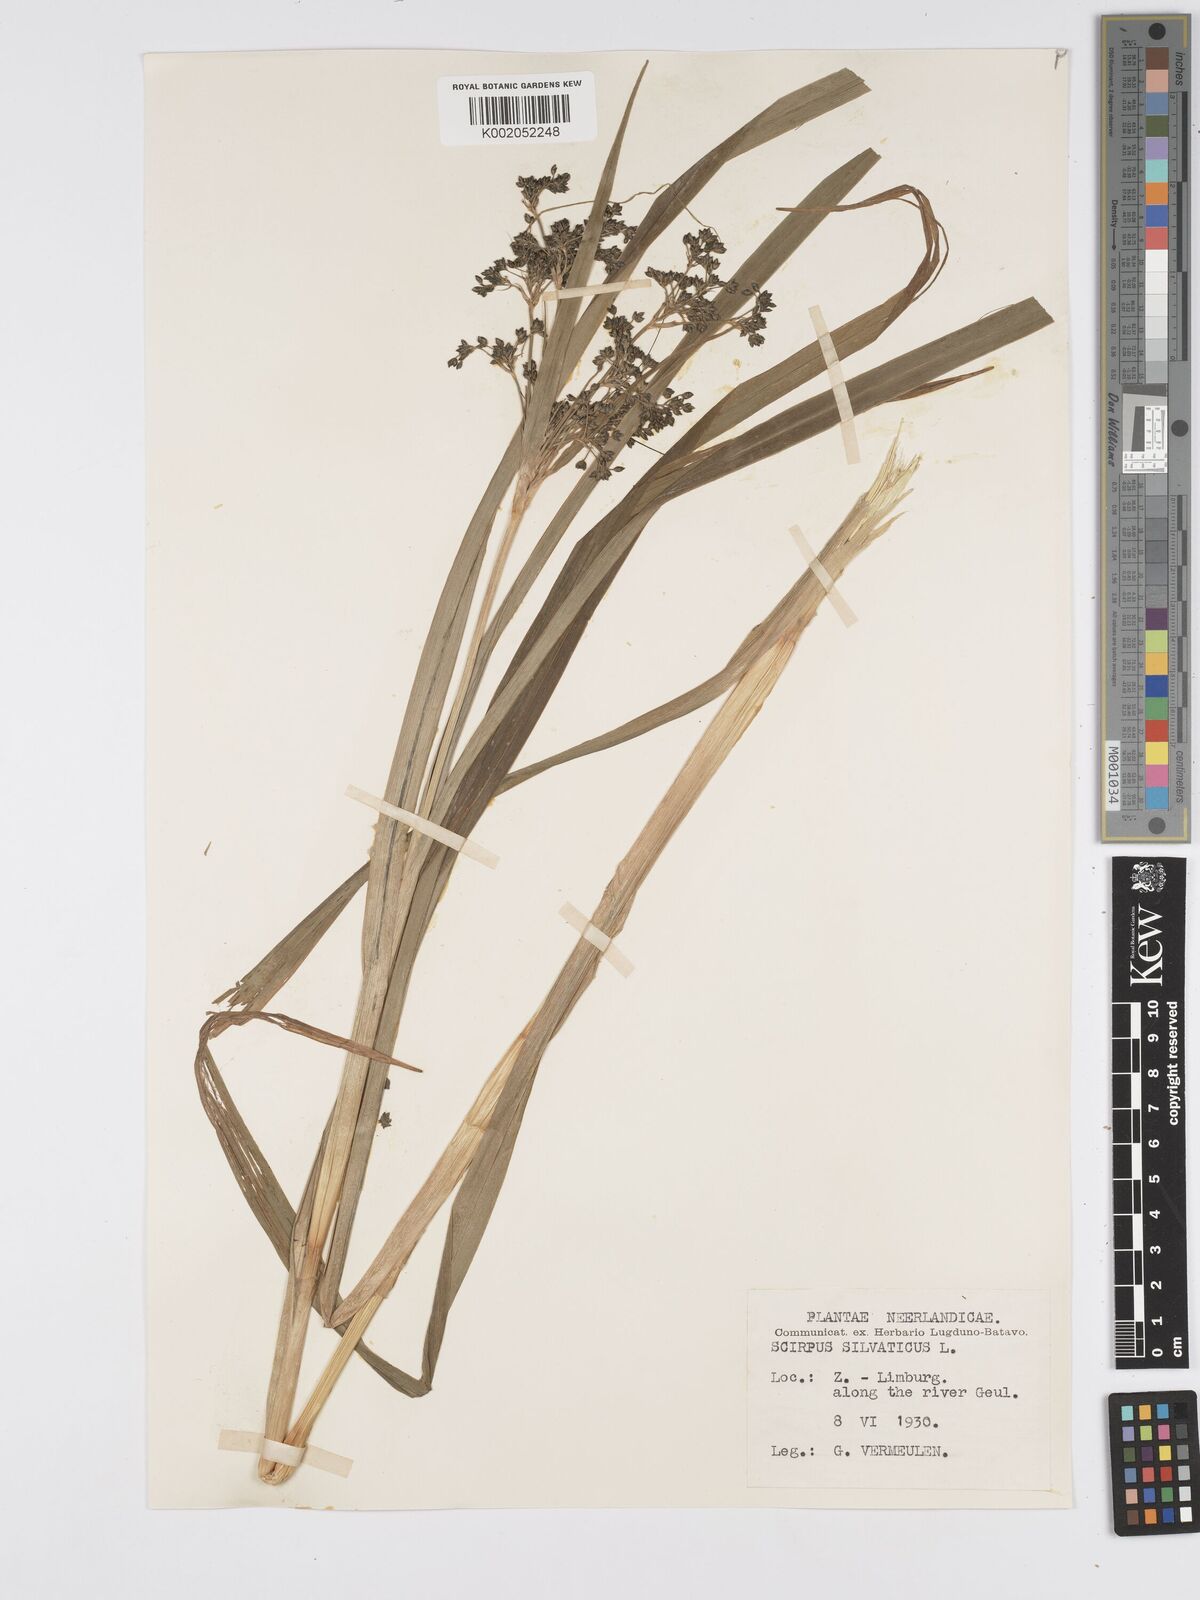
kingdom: Plantae
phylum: Tracheophyta
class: Liliopsida
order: Poales
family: Cyperaceae
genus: Scirpus
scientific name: Scirpus sylvaticus
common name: Wood club-rush
